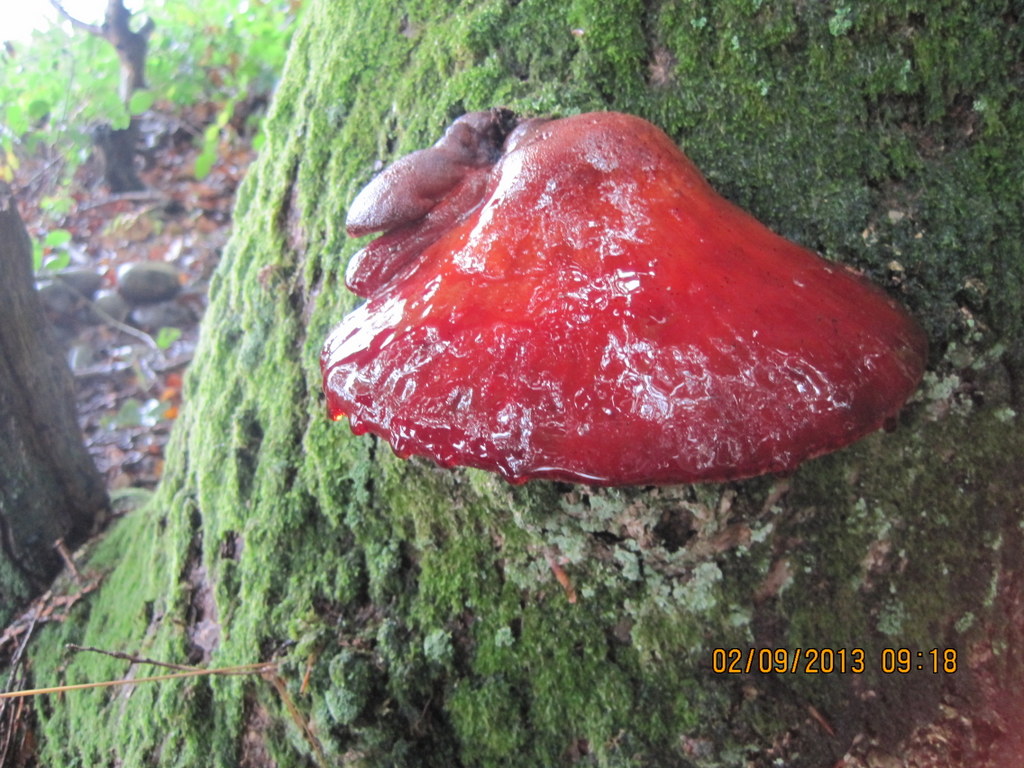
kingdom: Fungi
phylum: Basidiomycota
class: Agaricomycetes
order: Agaricales
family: Fistulinaceae
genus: Fistulina
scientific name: Fistulina hepatica
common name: oksetunge
